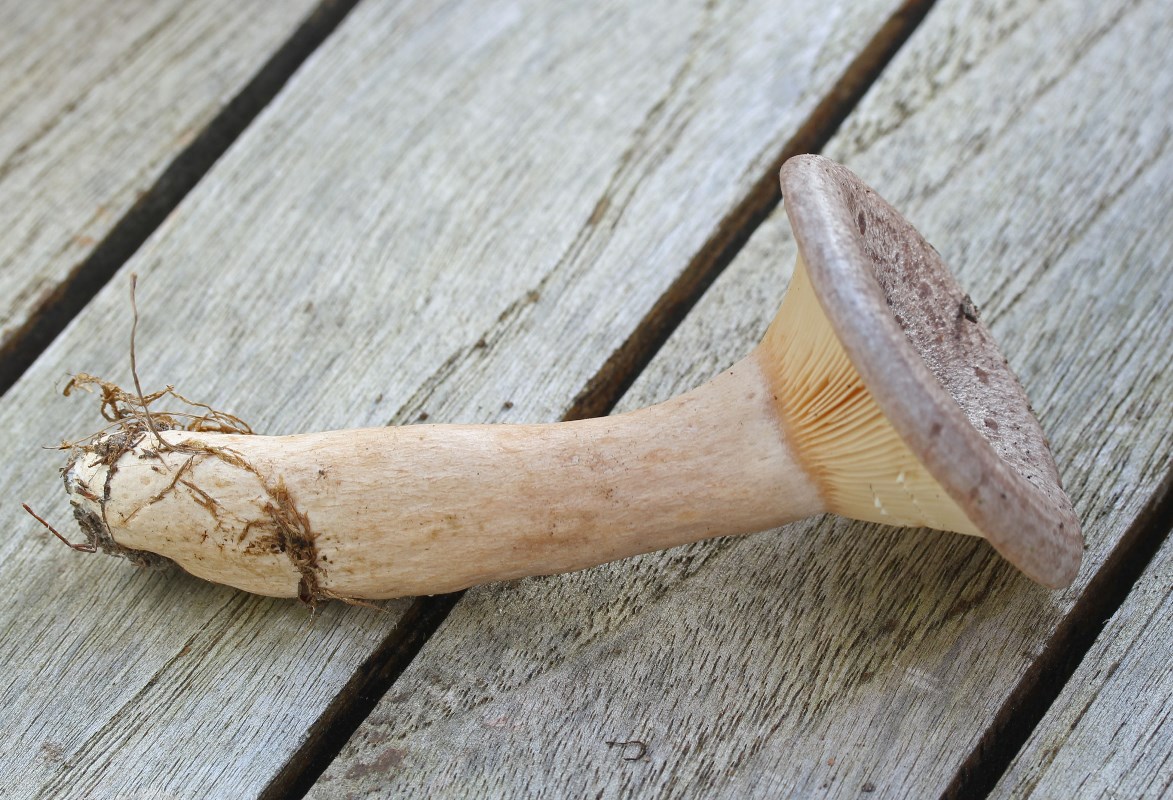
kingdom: Fungi
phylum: Basidiomycota
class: Agaricomycetes
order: Russulales
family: Russulaceae
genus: Lactarius
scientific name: Lactarius circellatus
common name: avnbøg-mælkehat
